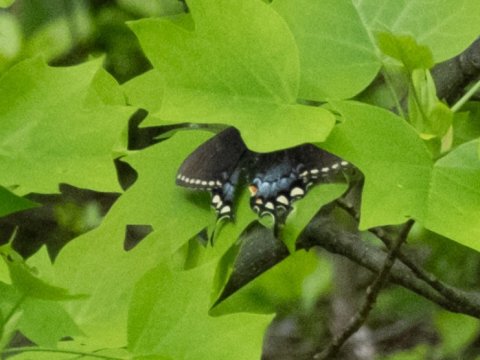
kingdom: Animalia
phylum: Arthropoda
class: Insecta
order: Lepidoptera
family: Papilionidae
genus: Pterourus
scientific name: Pterourus glaucus
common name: Eastern Tiger Swallowtail
